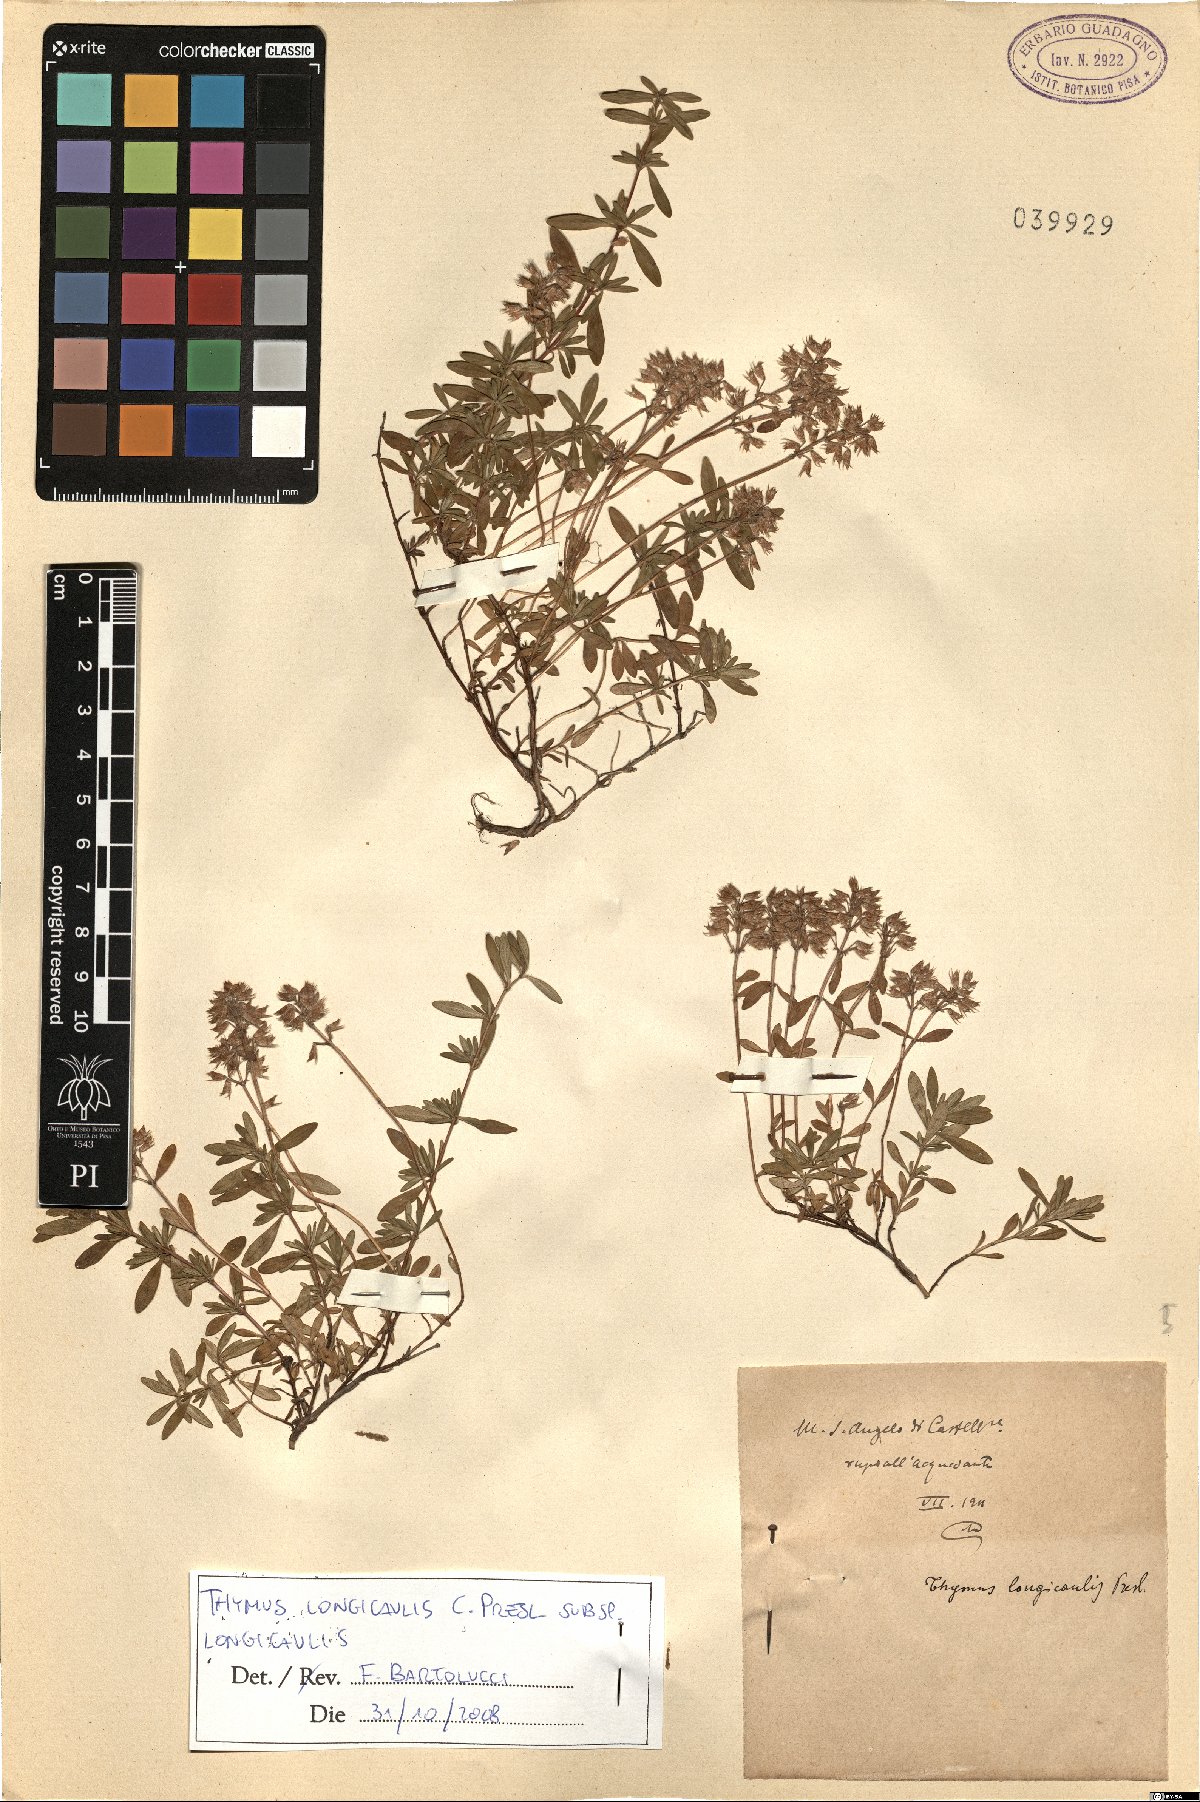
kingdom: Plantae
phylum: Tracheophyta
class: Magnoliopsida
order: Lamiales
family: Lamiaceae
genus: Thymus
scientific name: Thymus longicaulis
